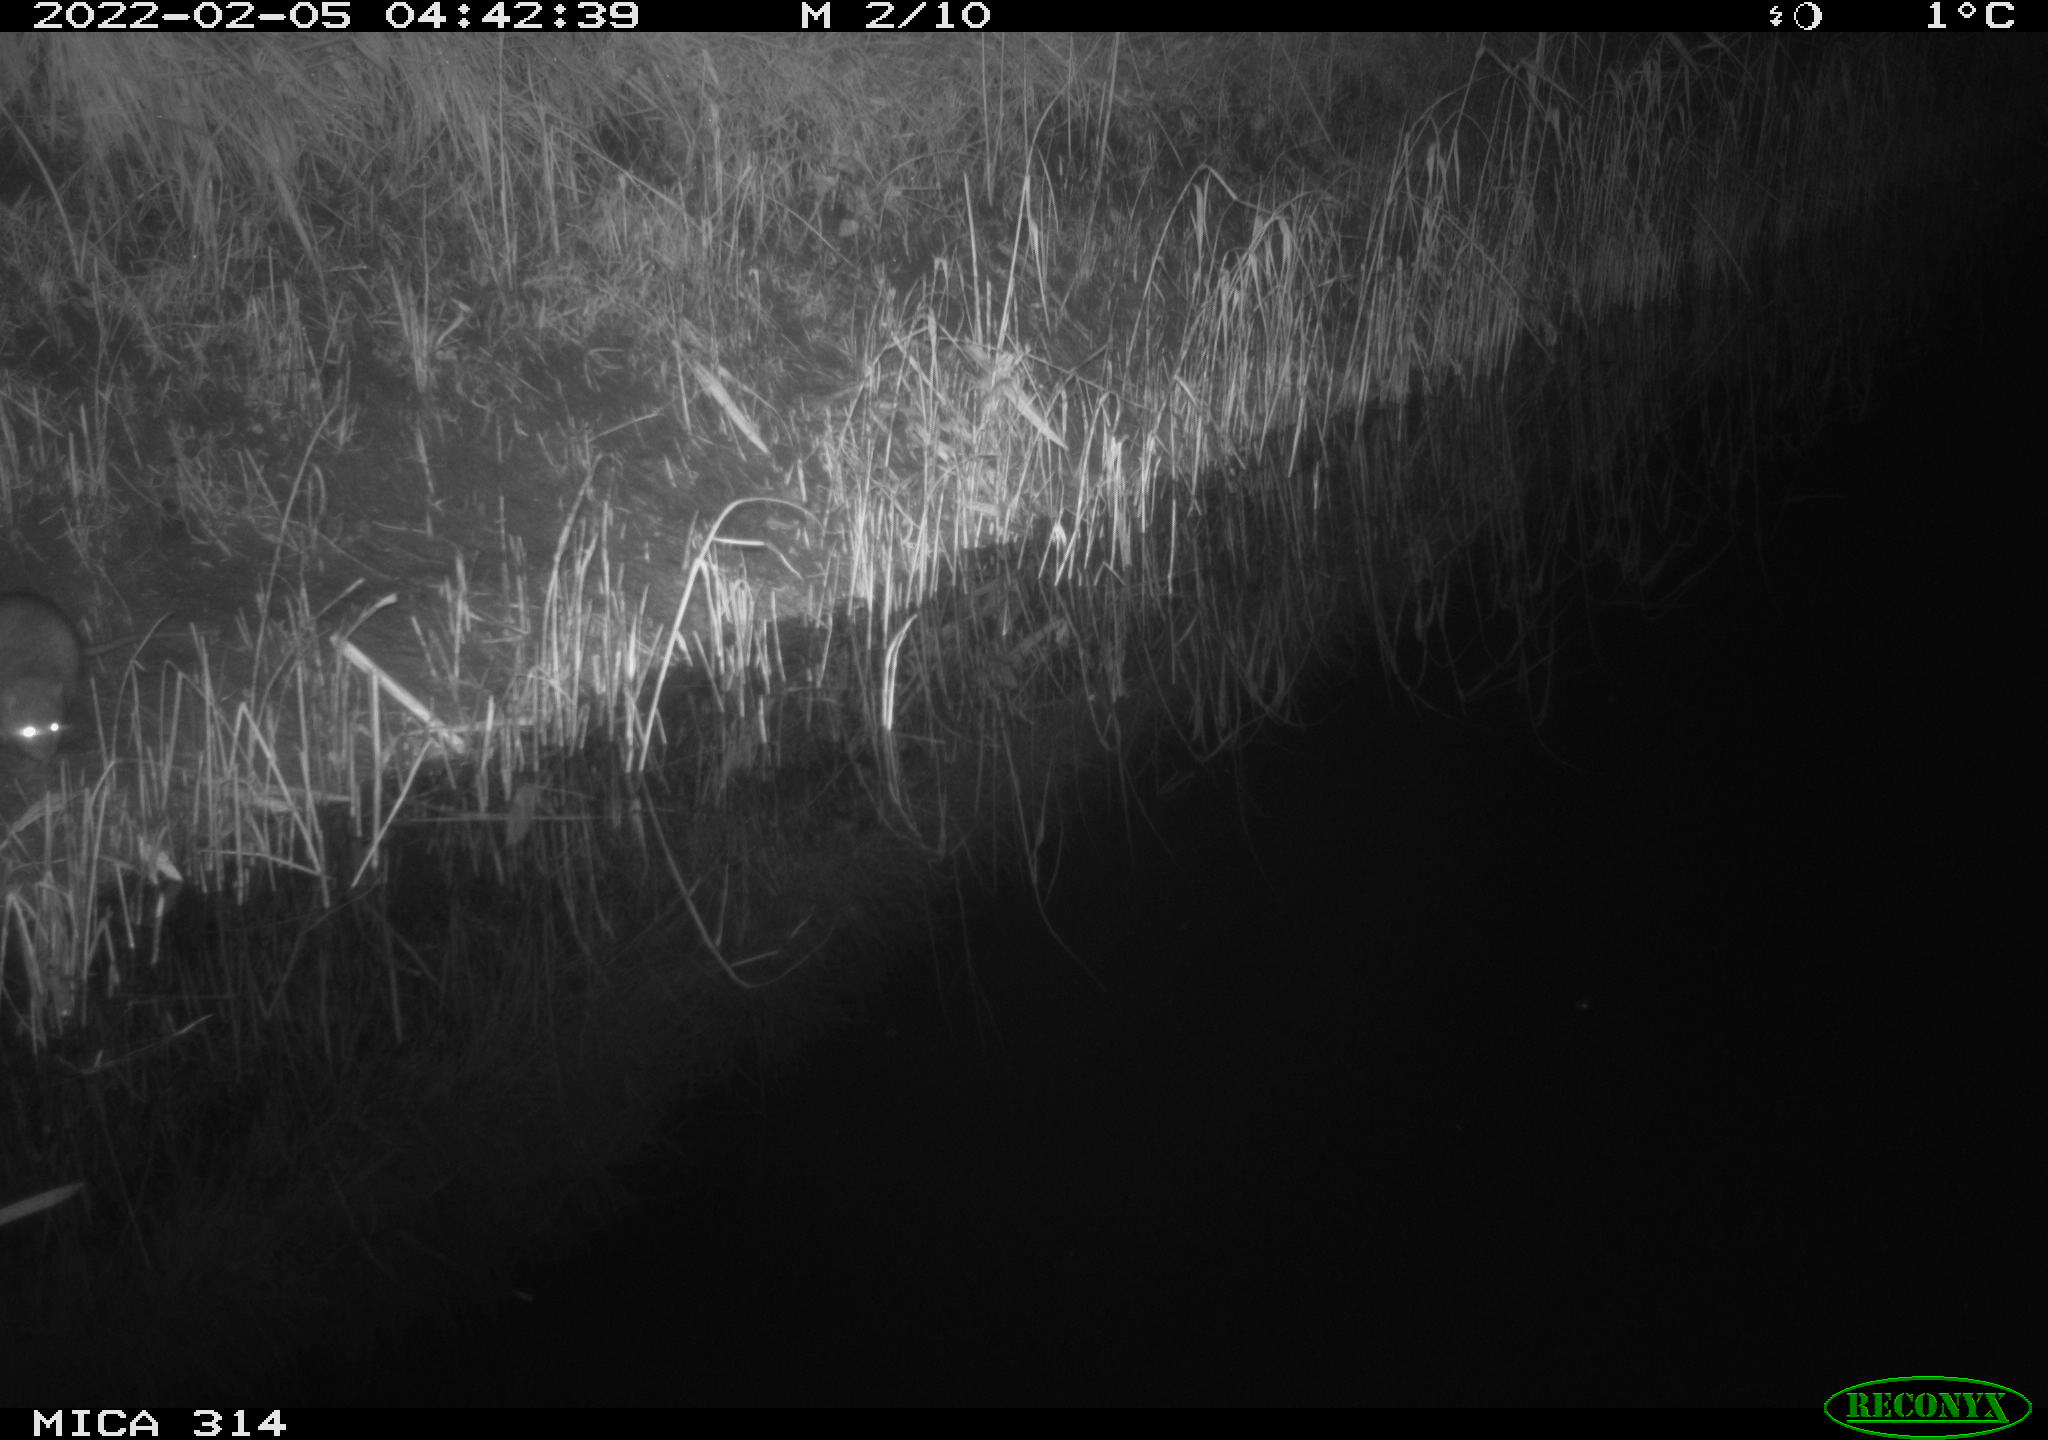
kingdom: Animalia
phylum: Chordata
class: Mammalia
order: Rodentia
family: Muridae
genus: Rattus
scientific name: Rattus norvegicus
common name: Brown rat
